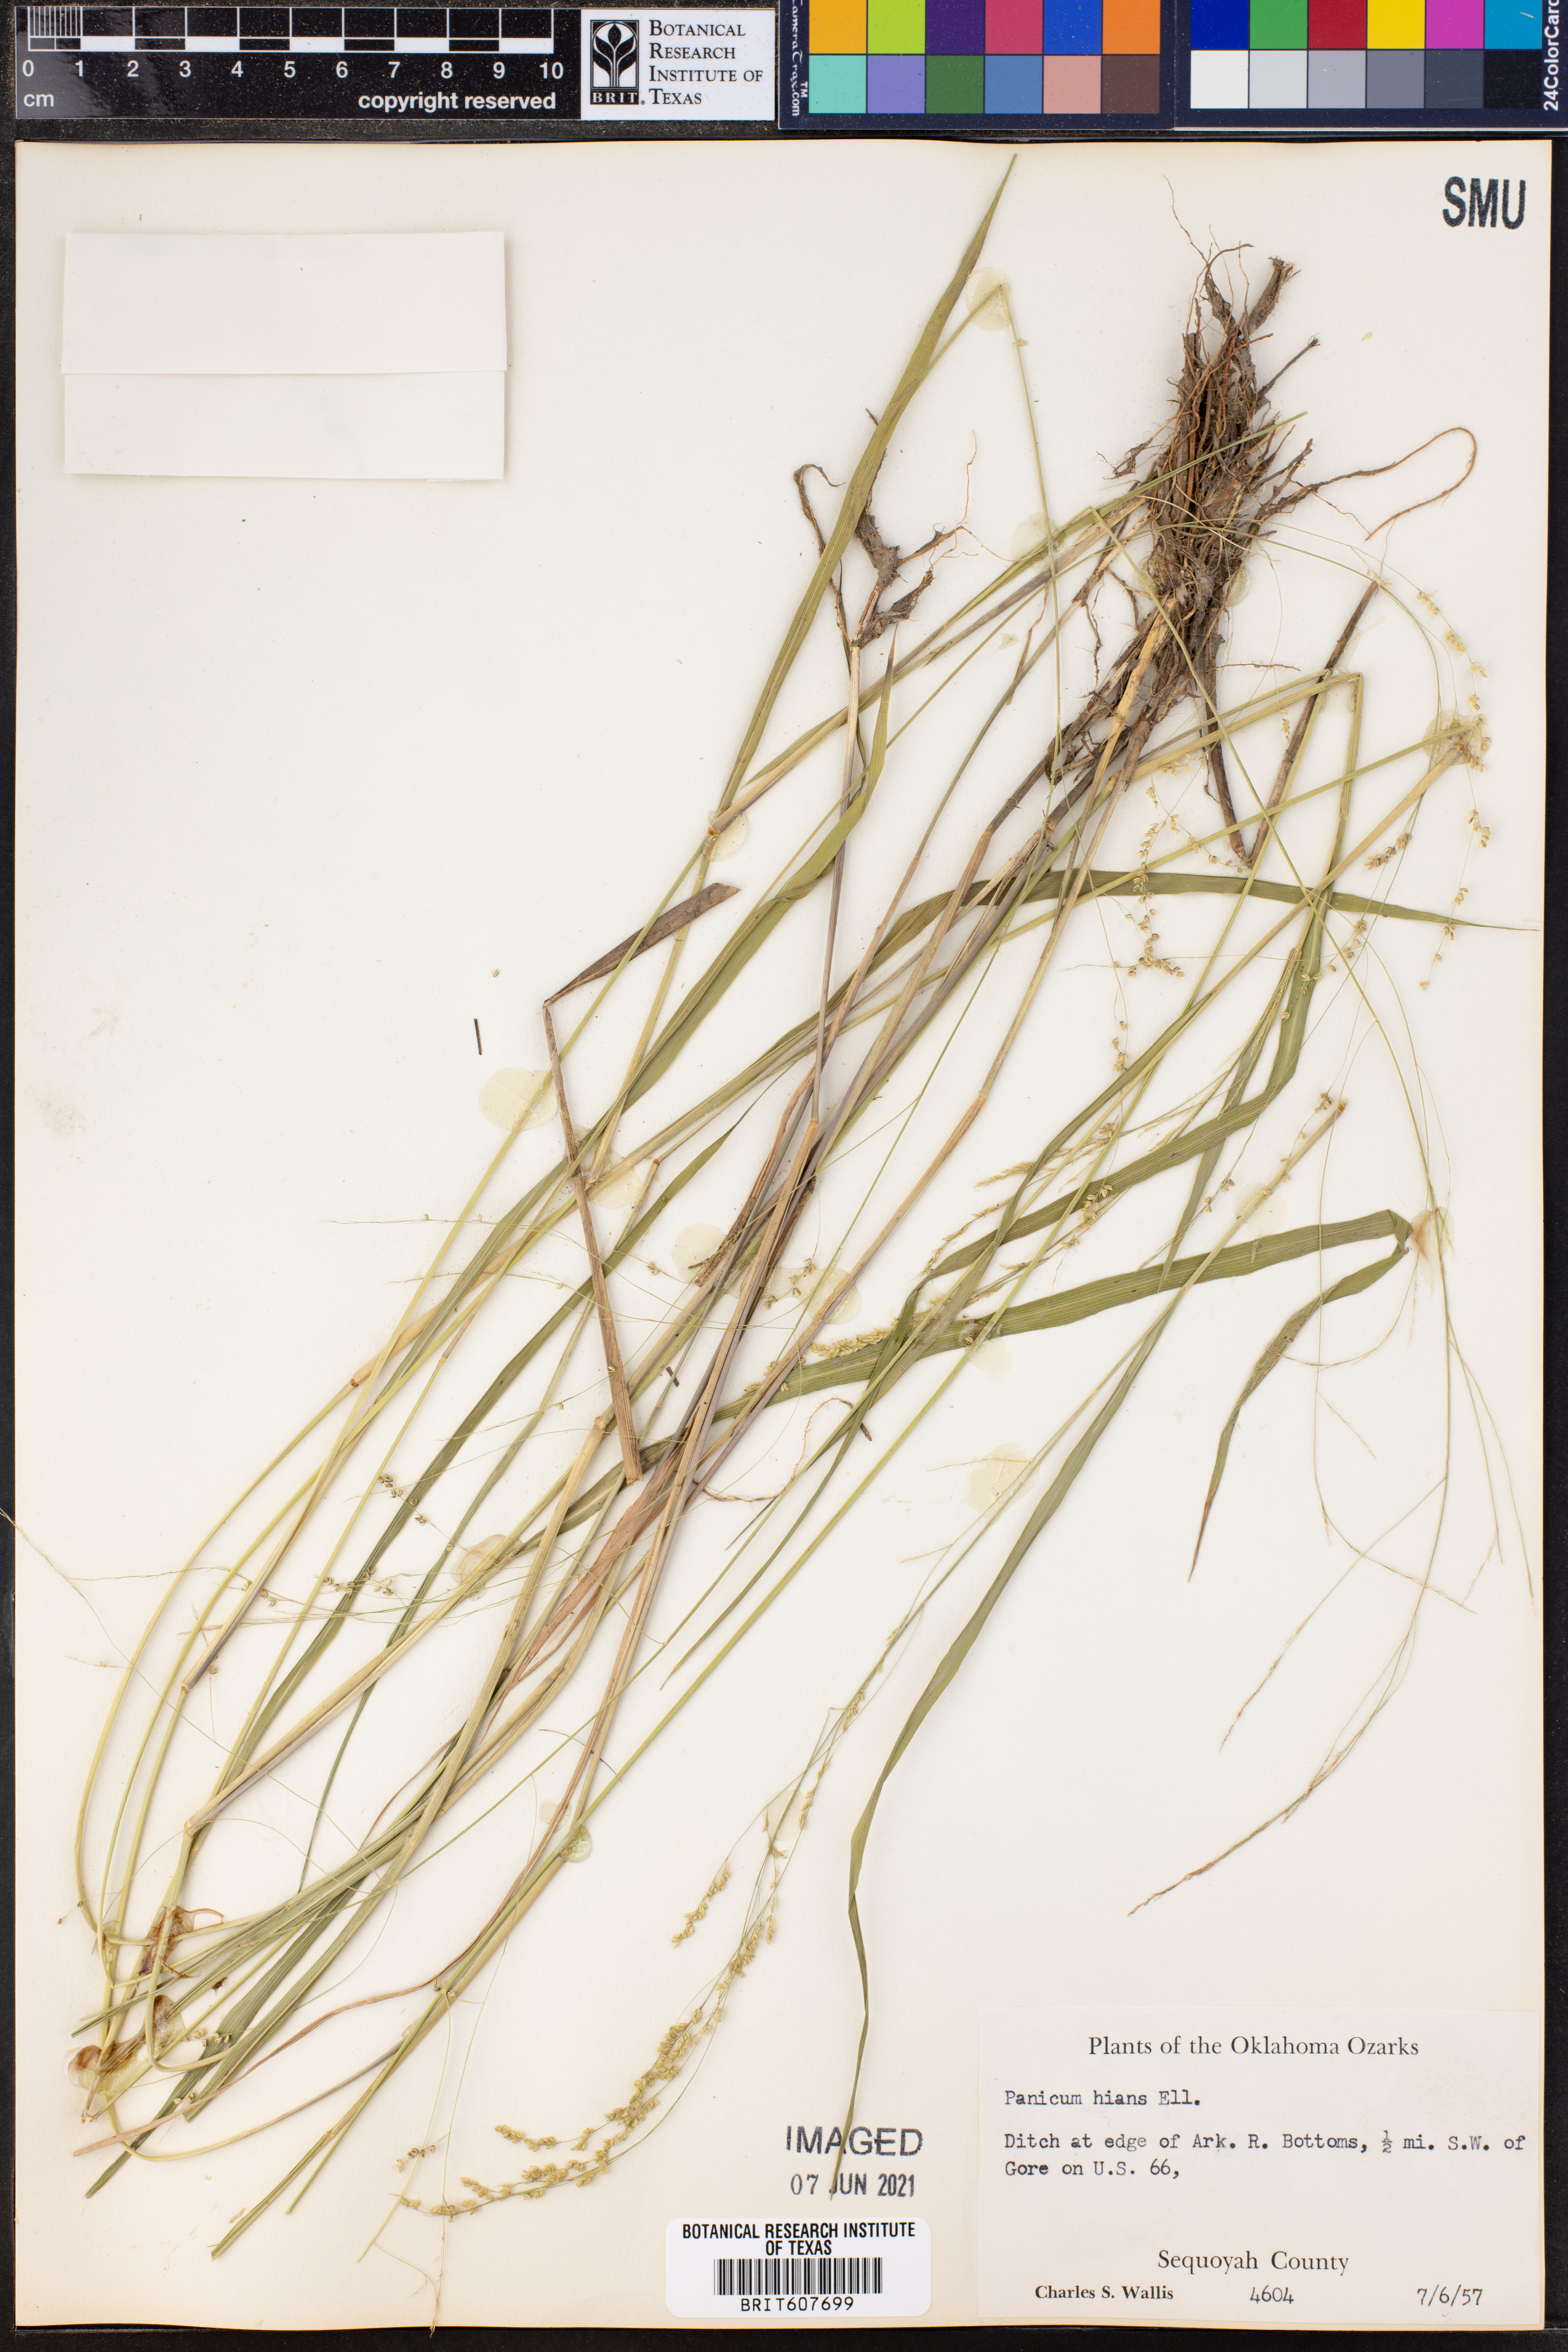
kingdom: Plantae
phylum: Tracheophyta
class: Liliopsida
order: Poales
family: Poaceae
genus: Coleataenia
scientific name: Coleataenia stenodes
